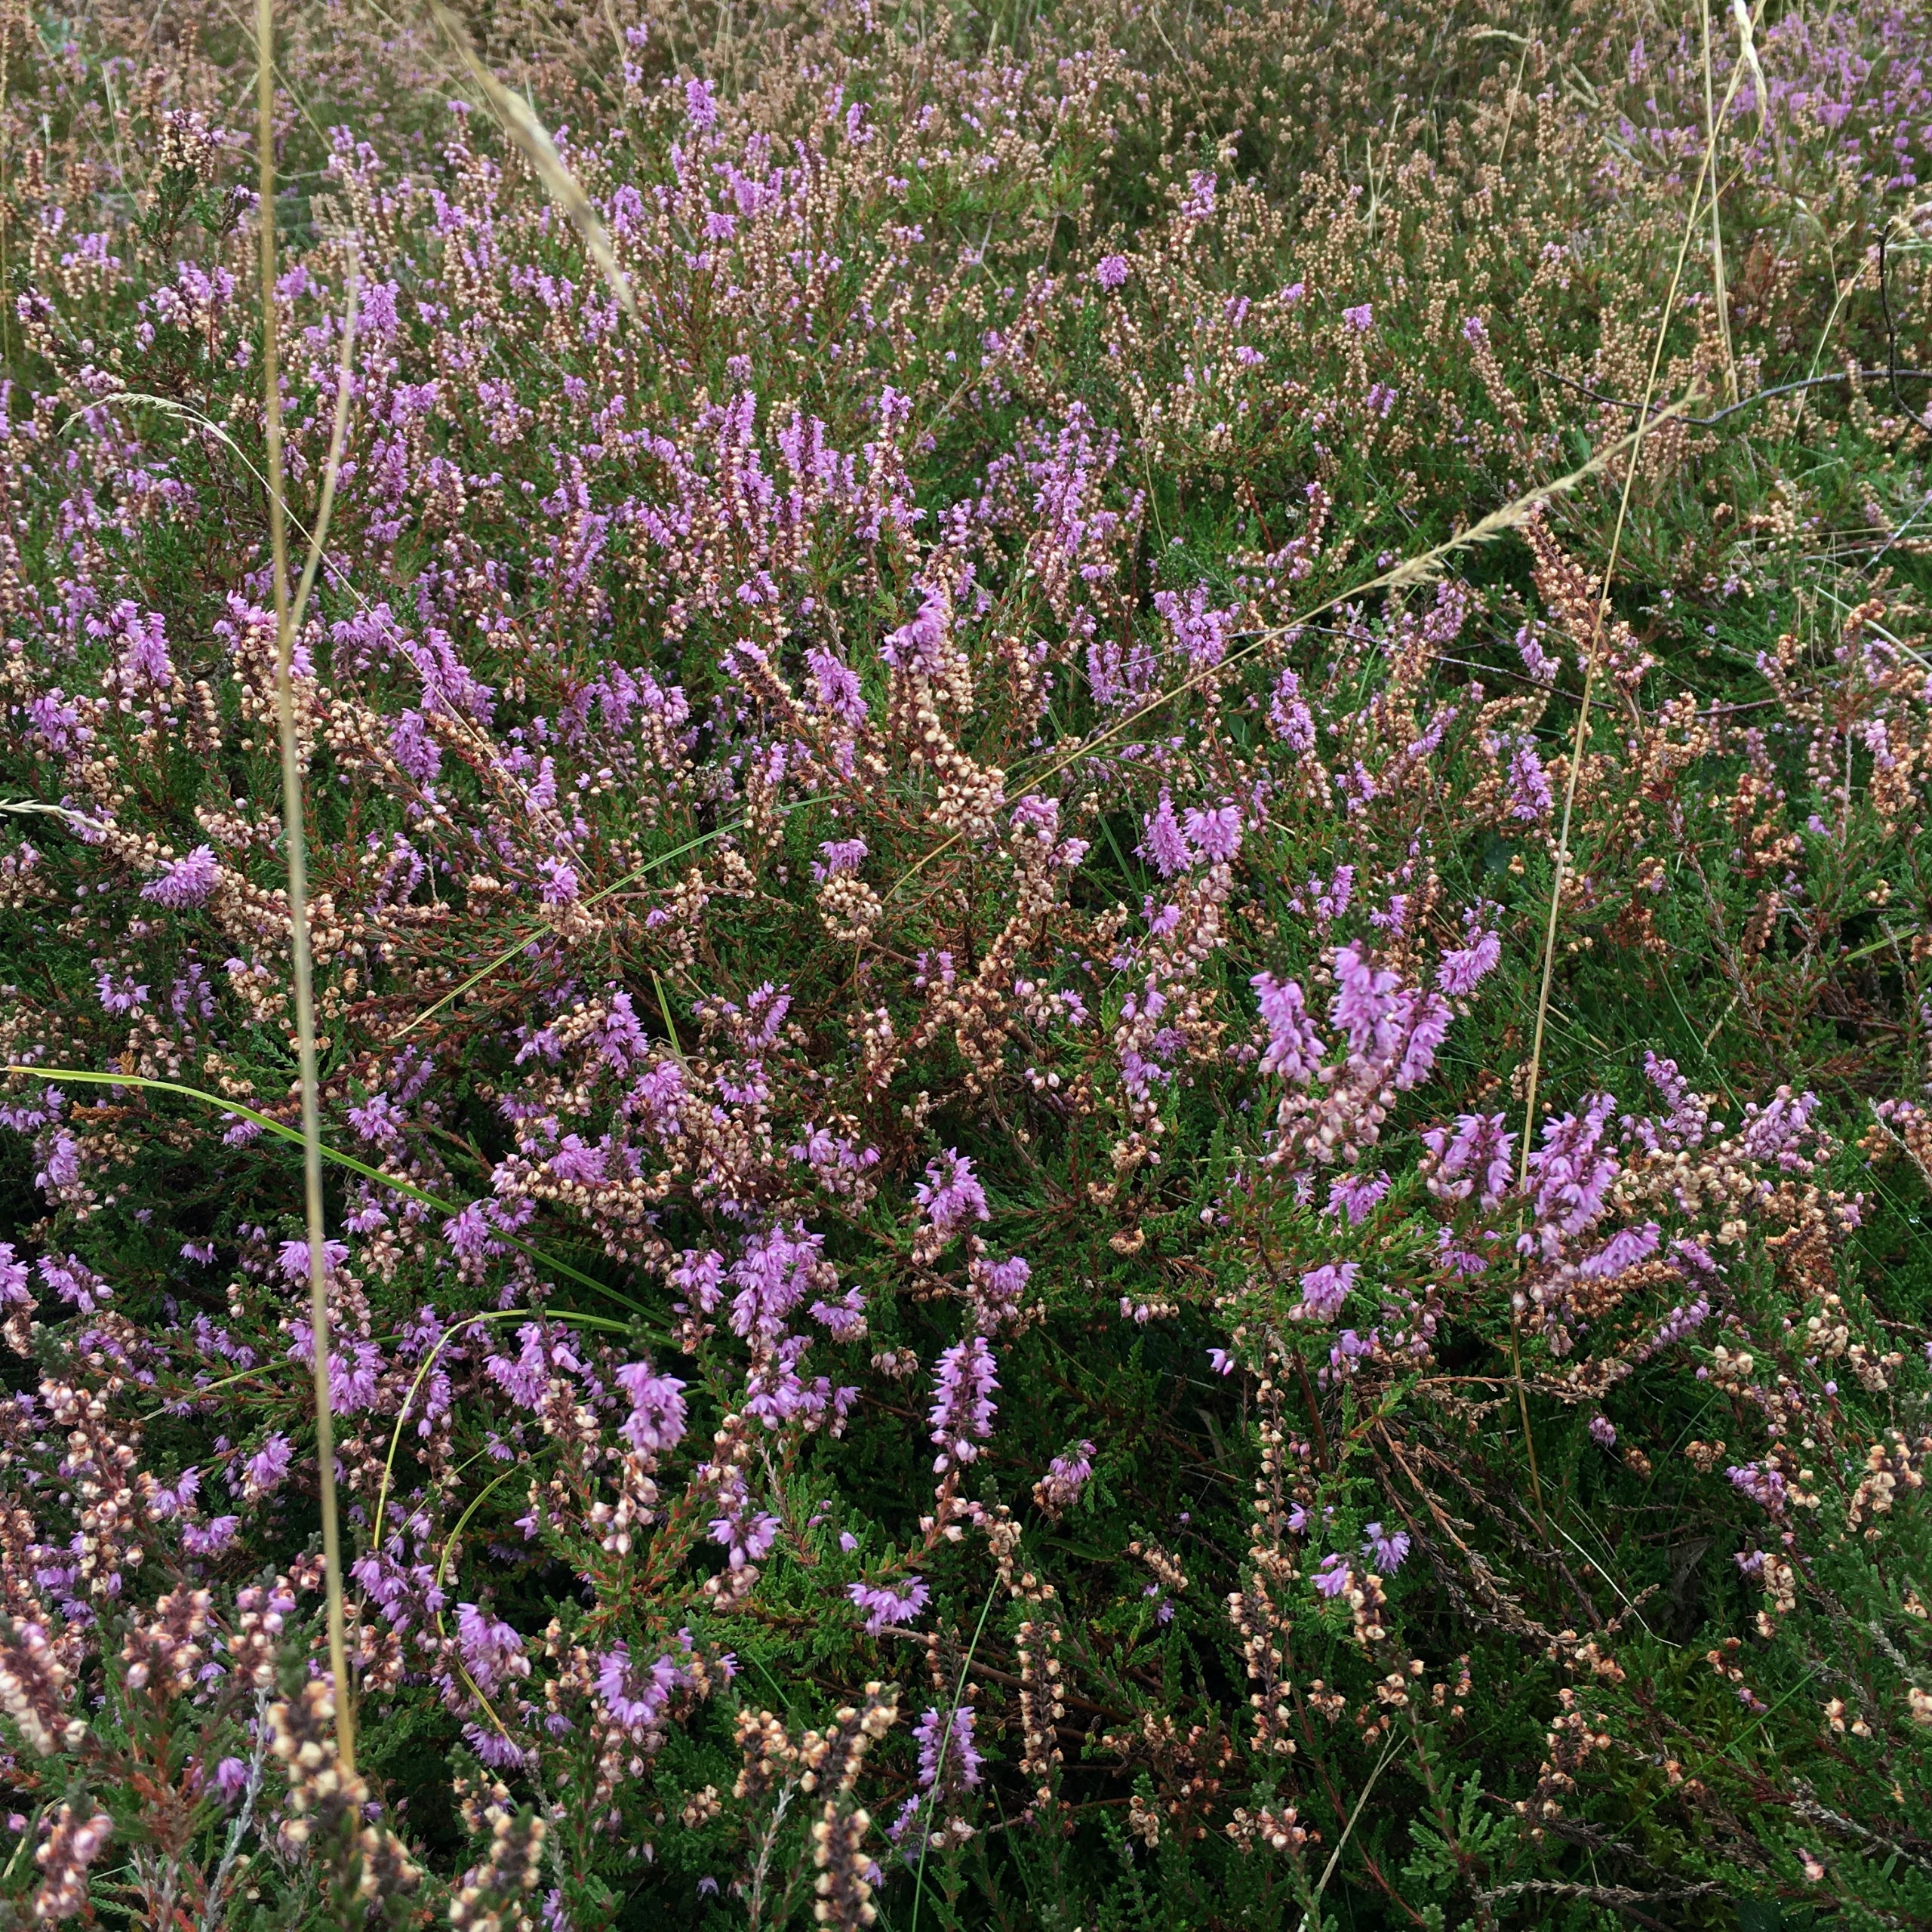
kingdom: Plantae
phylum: Tracheophyta
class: Magnoliopsida
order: Ericales
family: Ericaceae
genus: Calluna
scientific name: Calluna vulgaris
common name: Hedelyng
